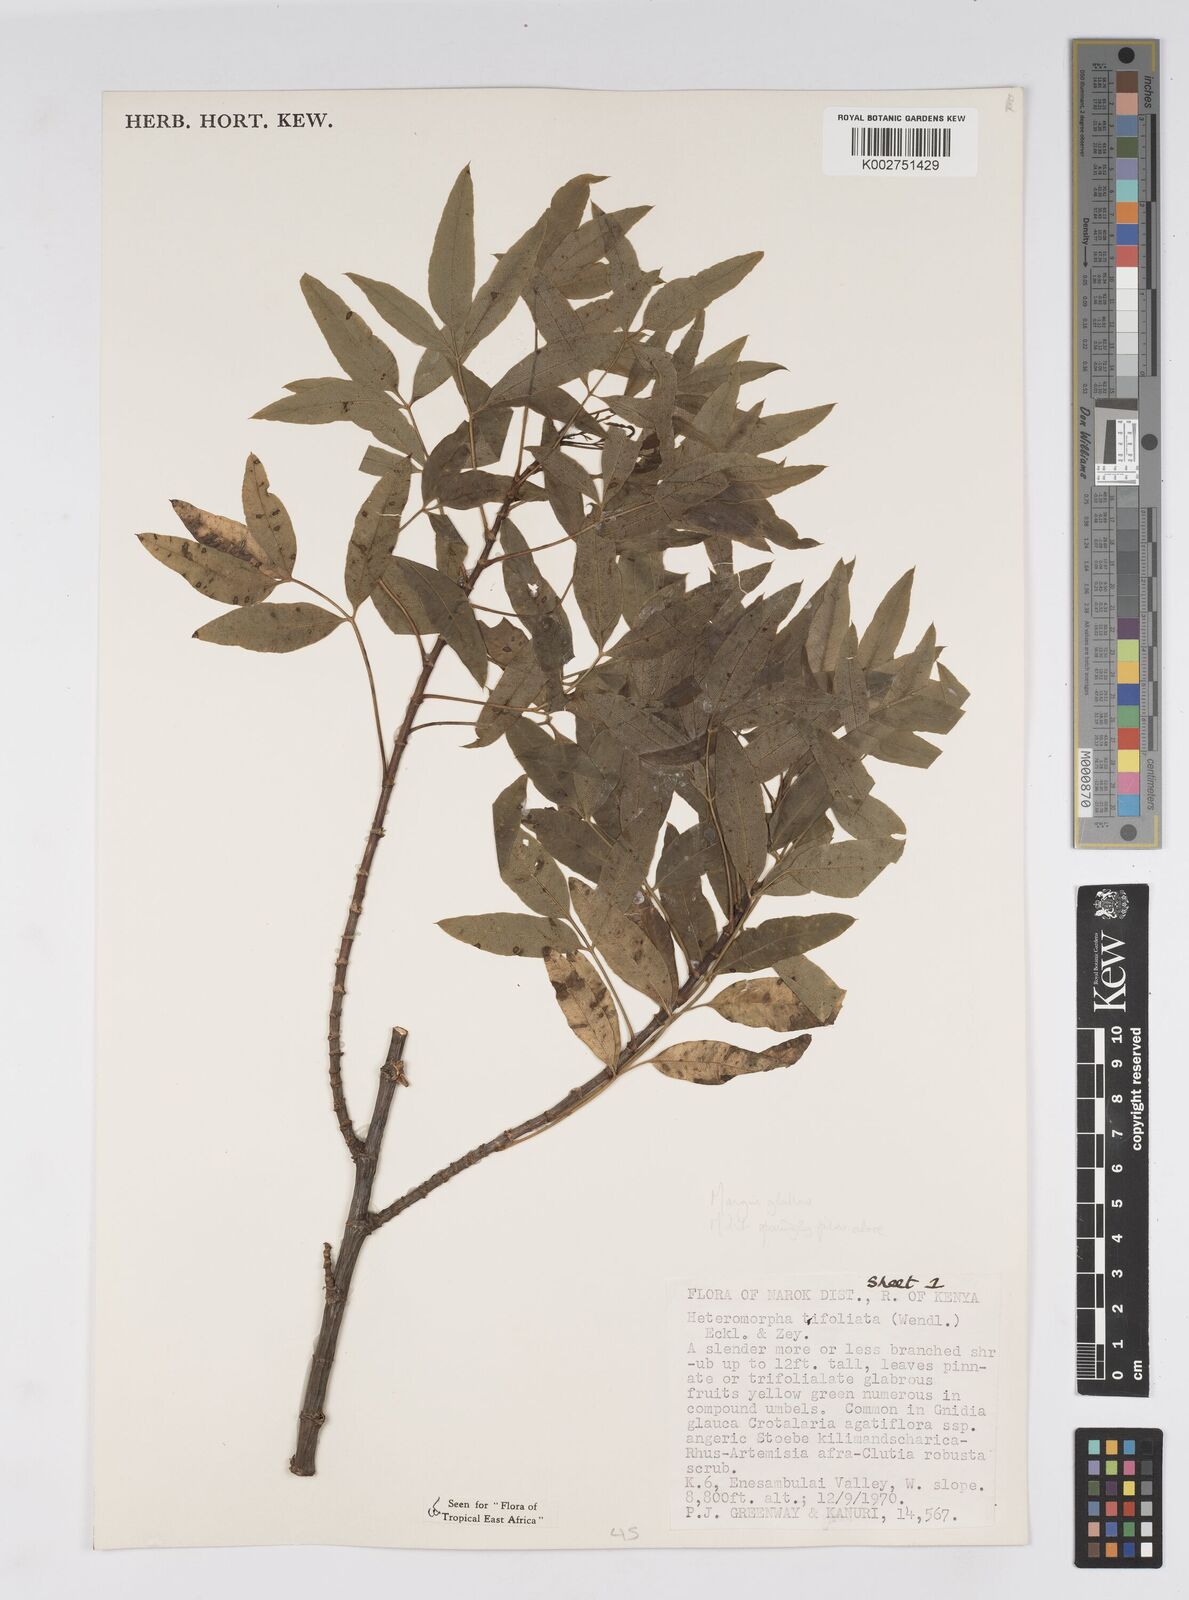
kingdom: Plantae
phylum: Tracheophyta
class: Magnoliopsida
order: Apiales
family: Apiaceae
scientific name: Apiaceae
